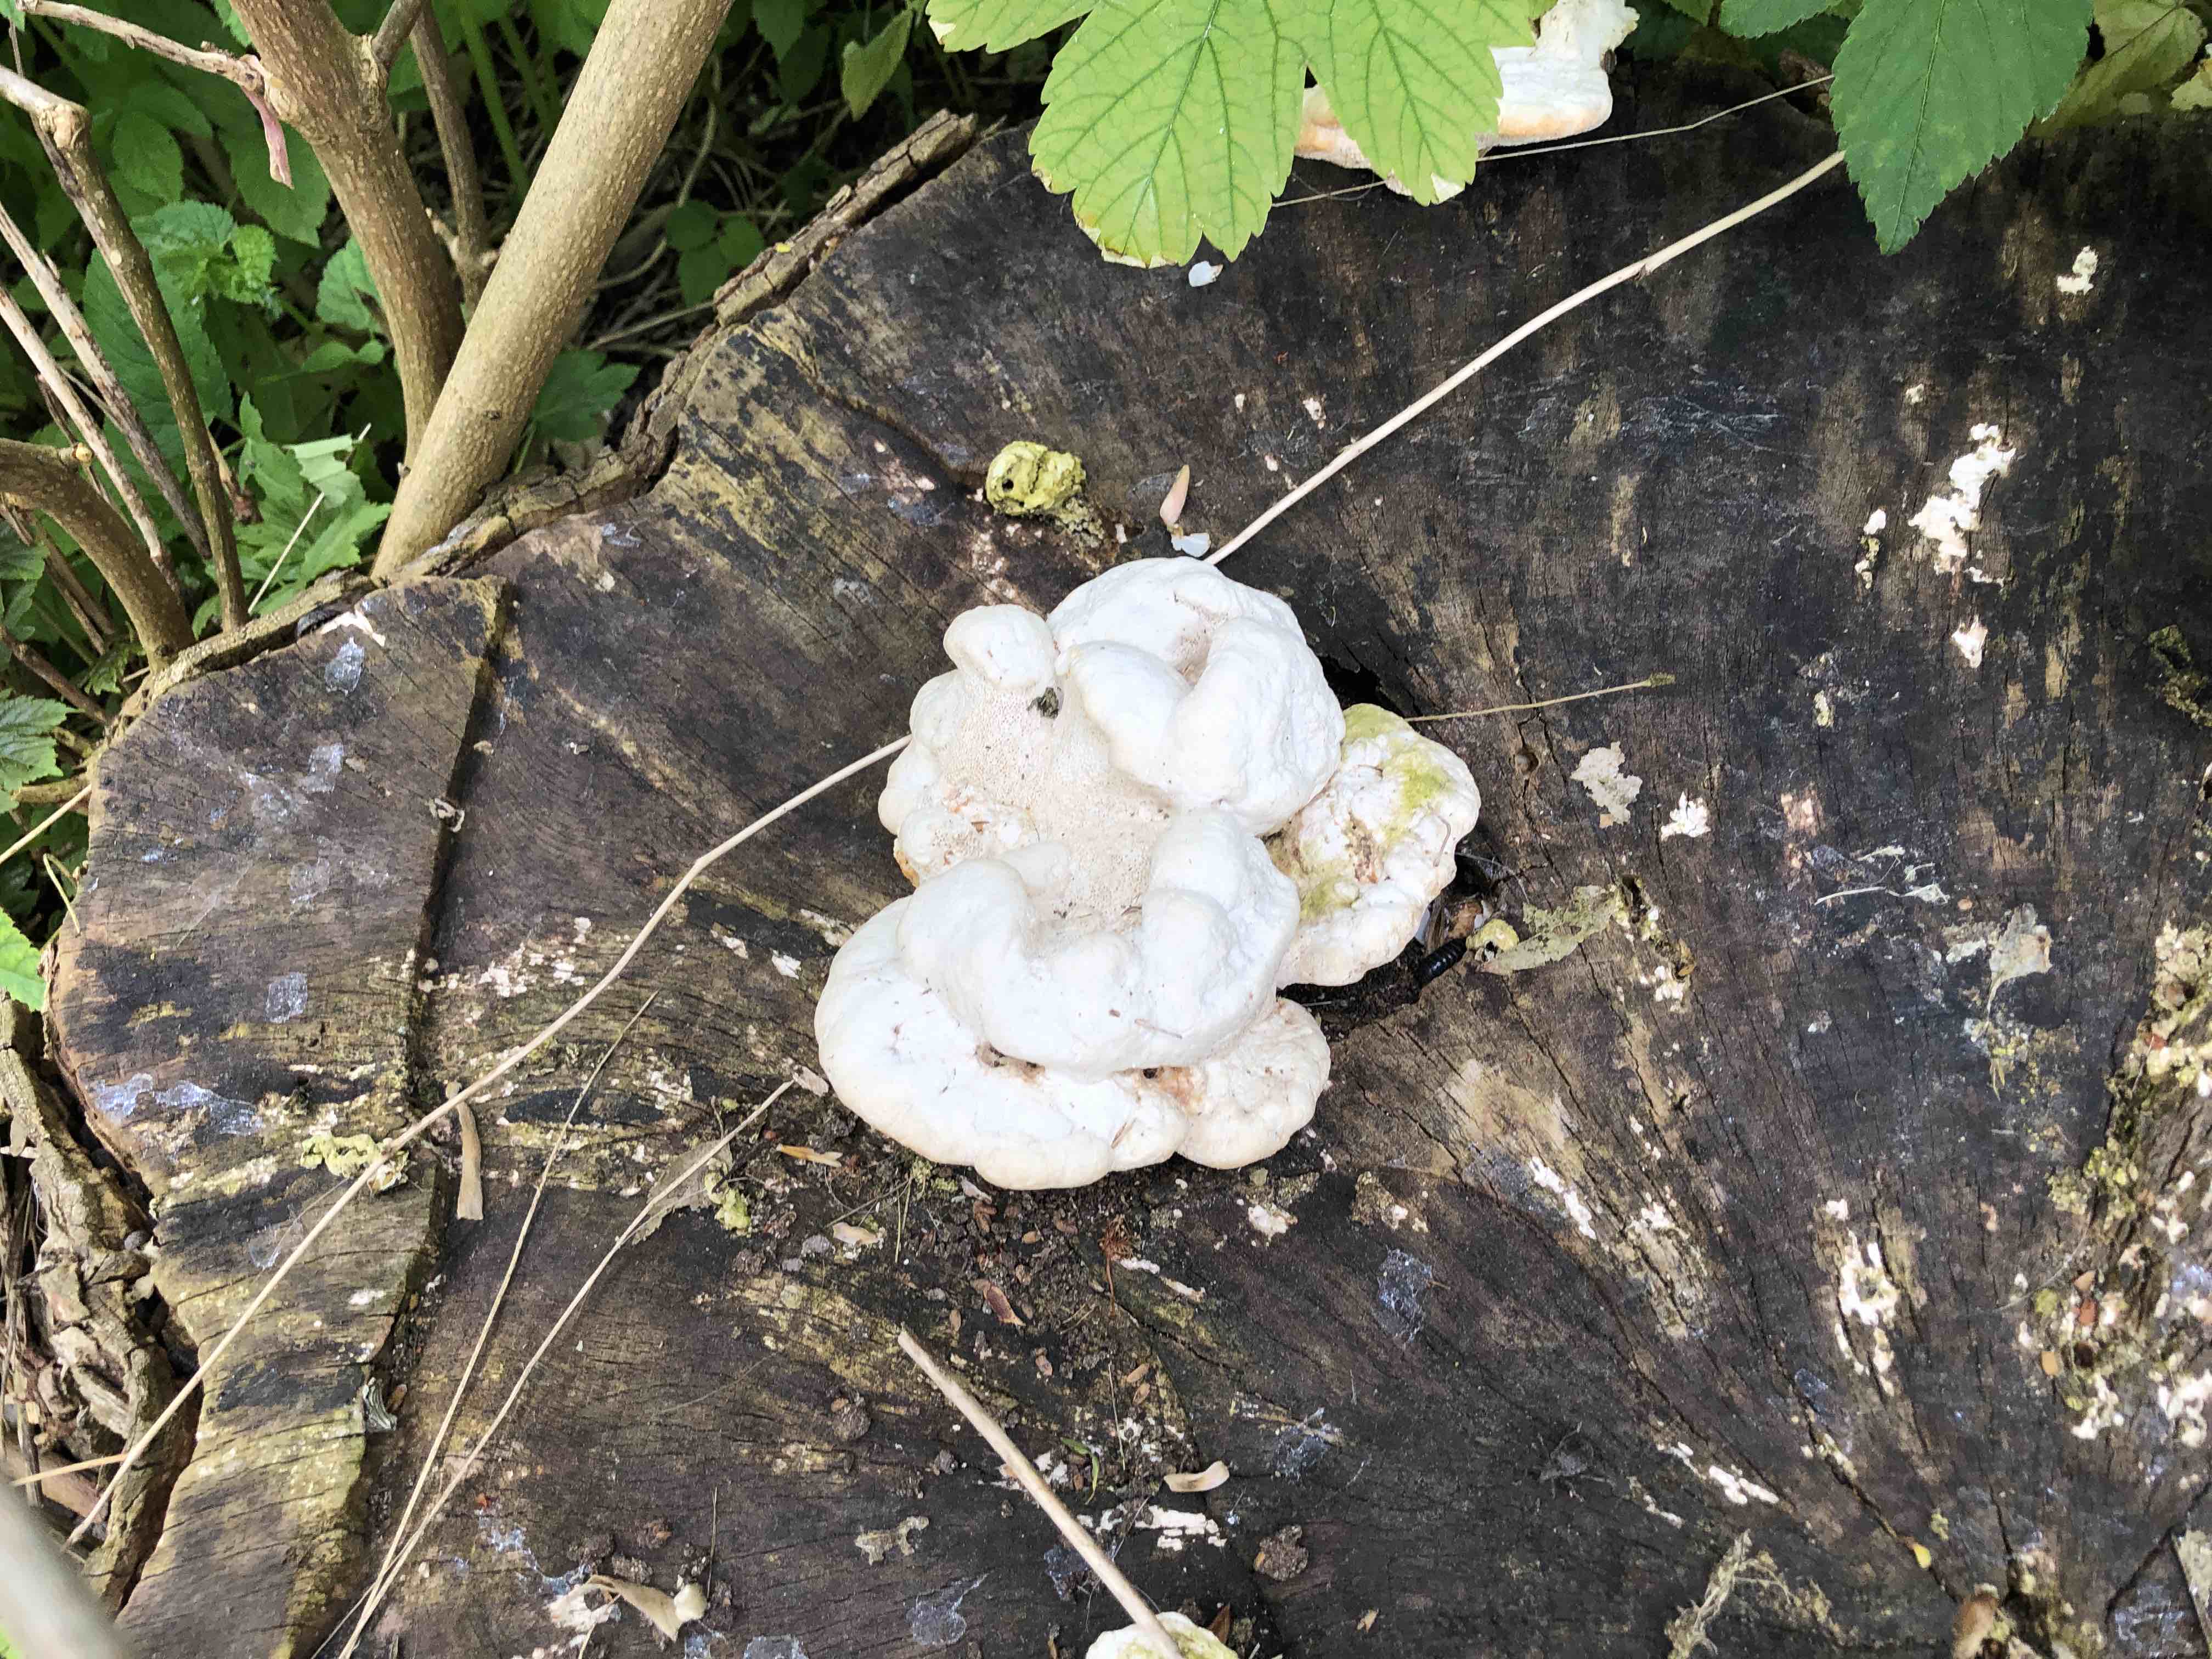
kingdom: Fungi
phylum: Basidiomycota
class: Agaricomycetes
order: Polyporales
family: Polyporaceae
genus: Trametes
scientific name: Trametes gibbosa
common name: puklet læderporesvamp
